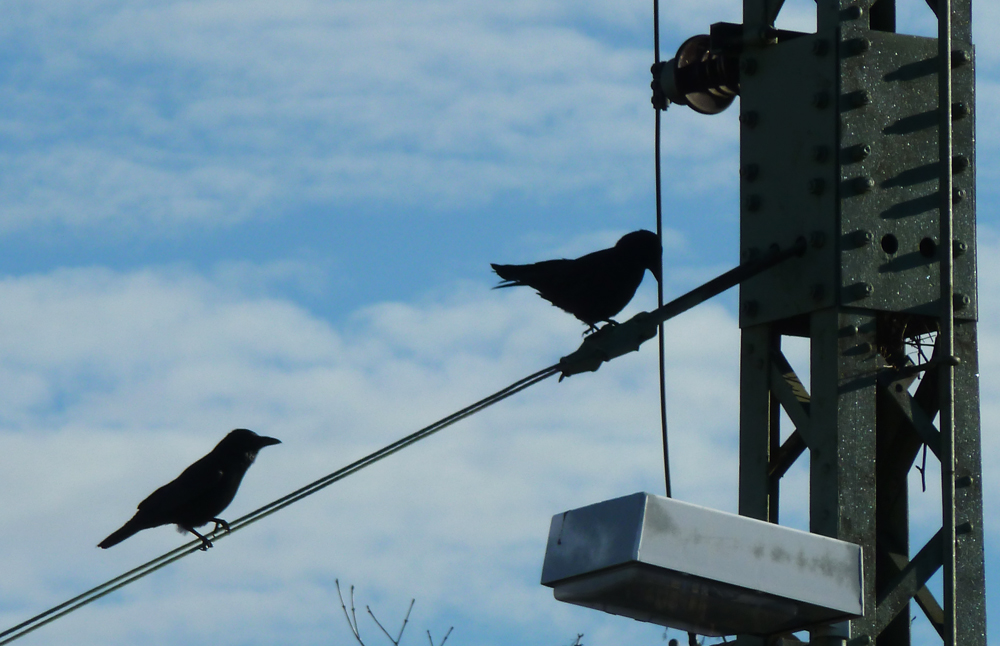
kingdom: Animalia
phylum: Chordata
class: Aves
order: Passeriformes
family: Corvidae
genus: Corvus
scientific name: Corvus corone
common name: Carrion crow
